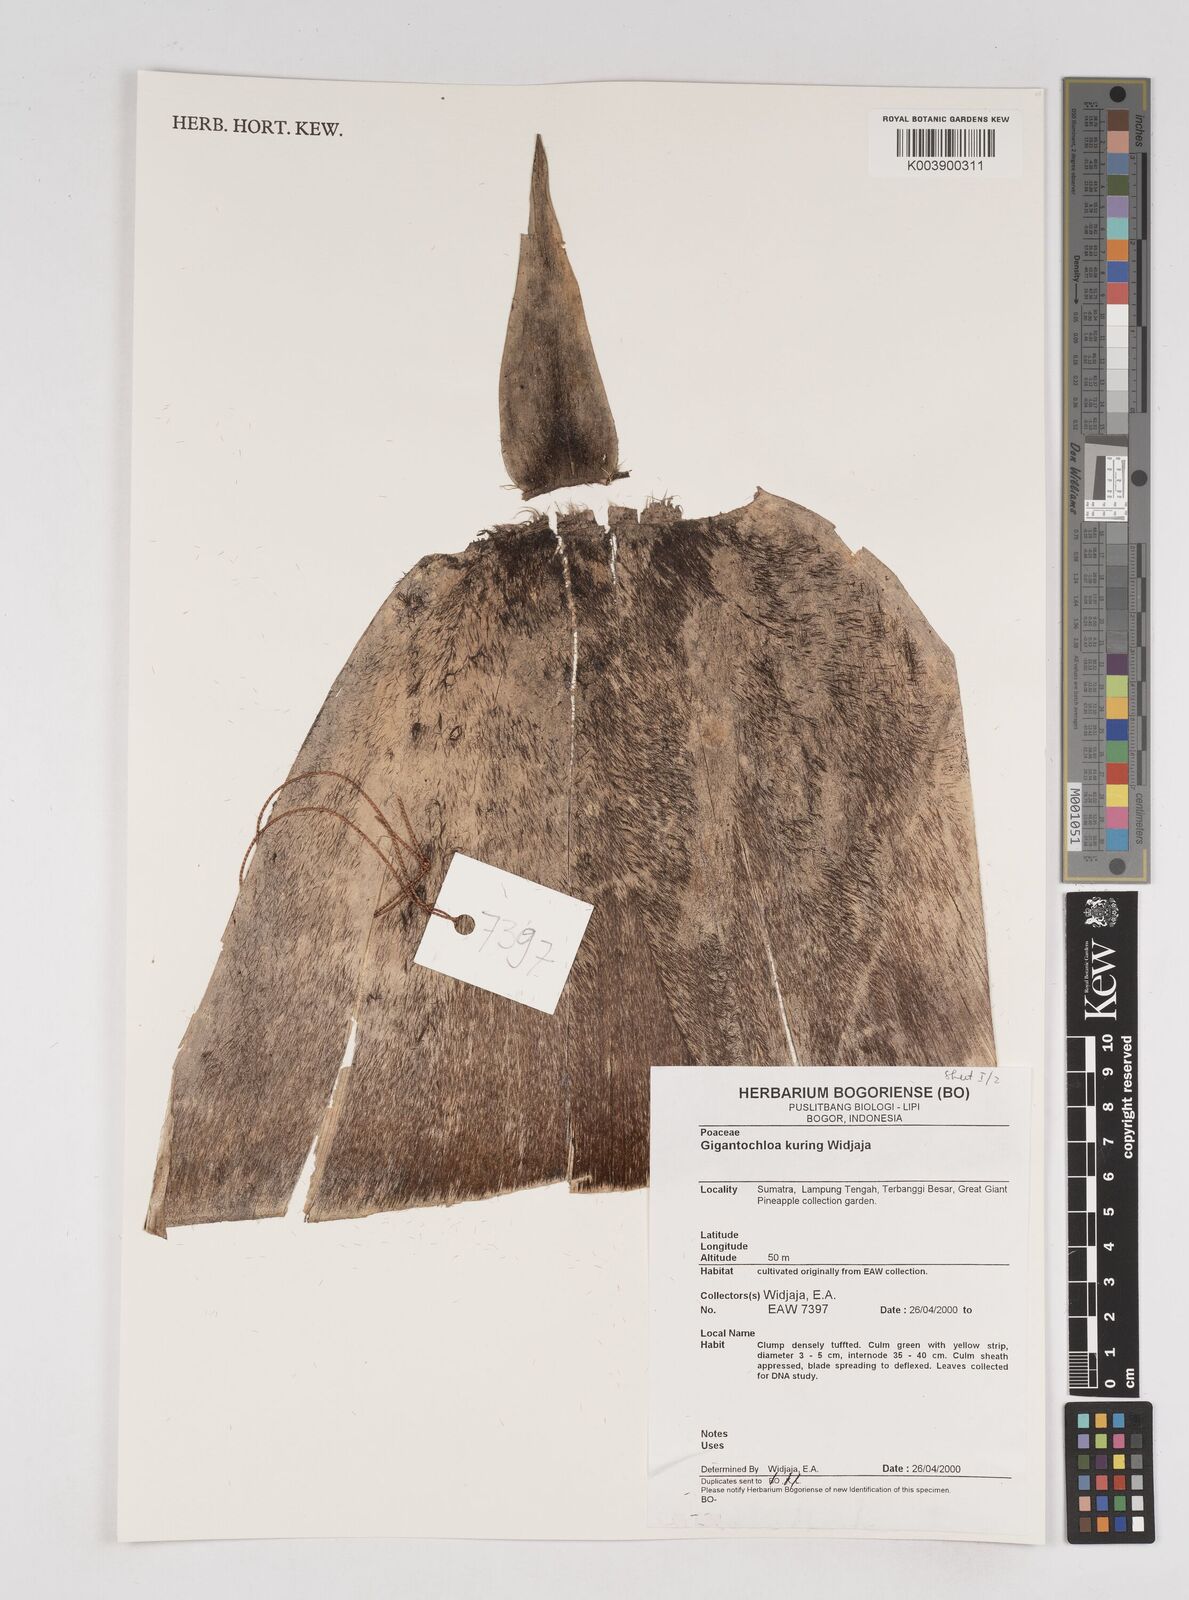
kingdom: Plantae
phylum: Tracheophyta
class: Liliopsida
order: Poales
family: Poaceae
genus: Gigantochloa
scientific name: Gigantochloa kuring
